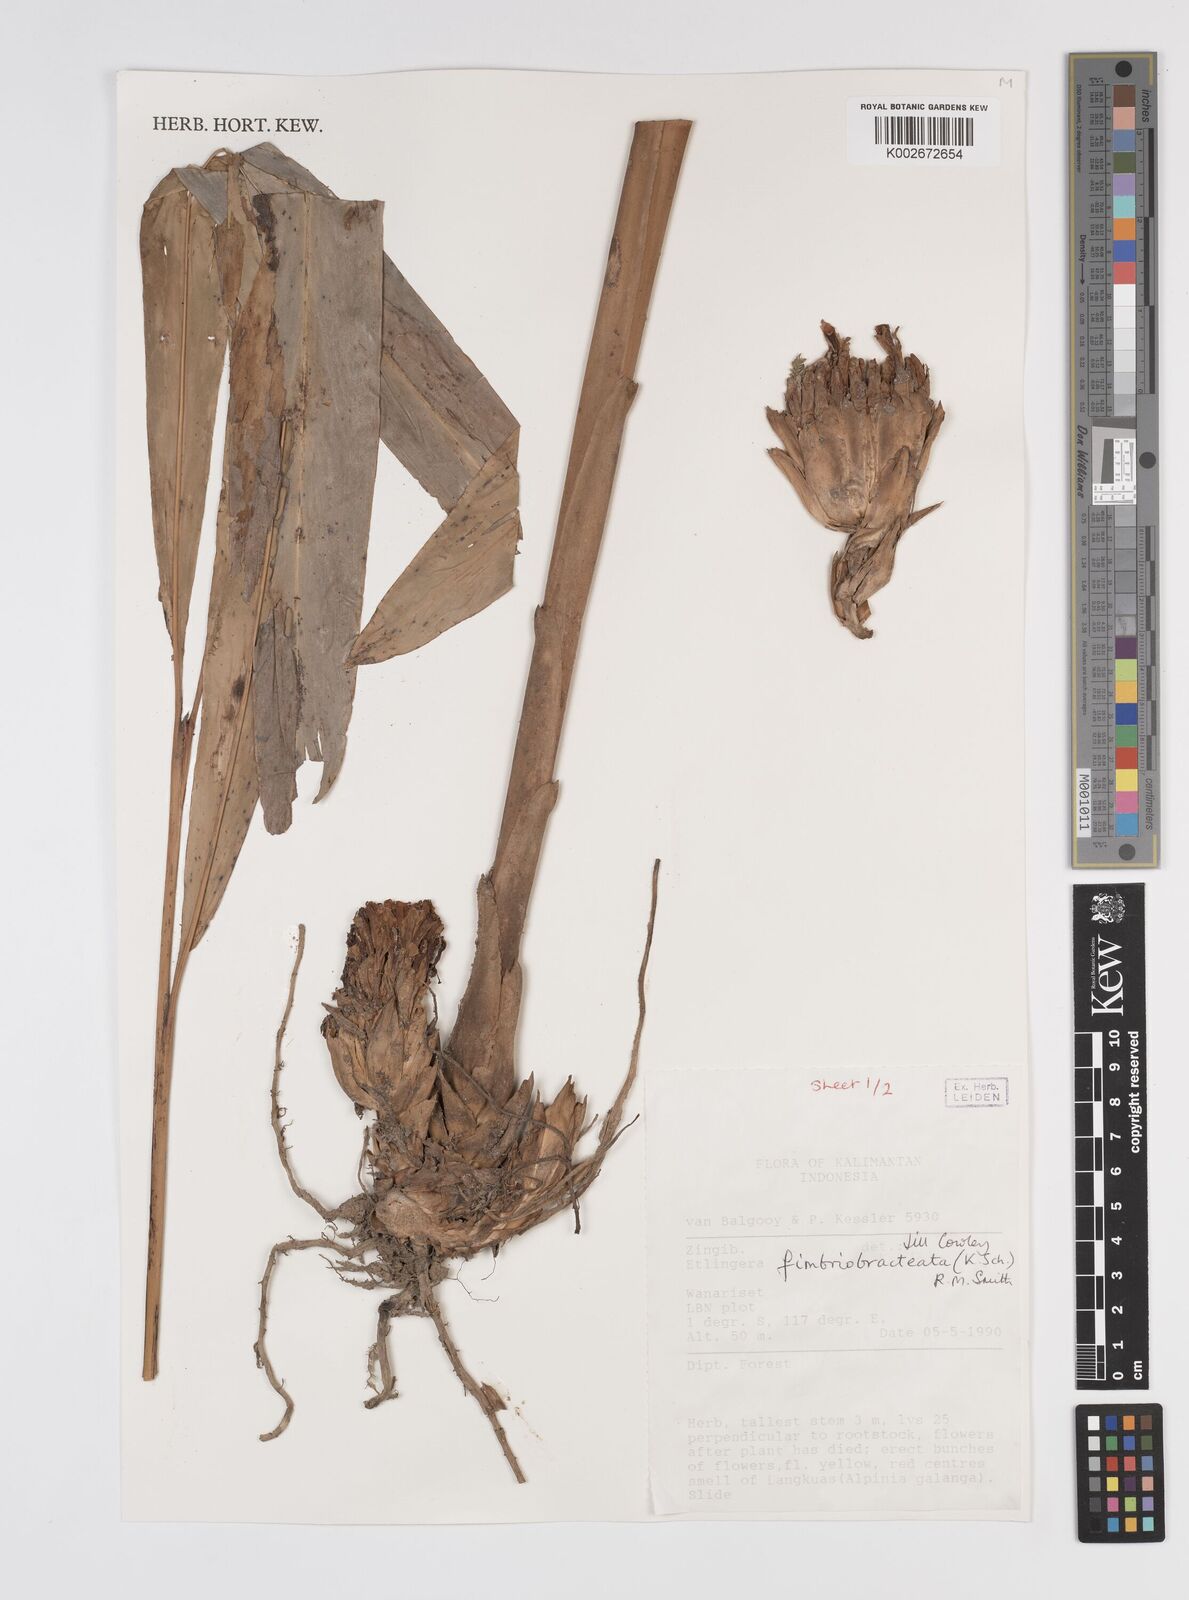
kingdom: Plantae
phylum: Tracheophyta
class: Liliopsida
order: Zingiberales
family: Zingiberaceae
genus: Etlingera
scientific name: Etlingera fimbriobracteata
